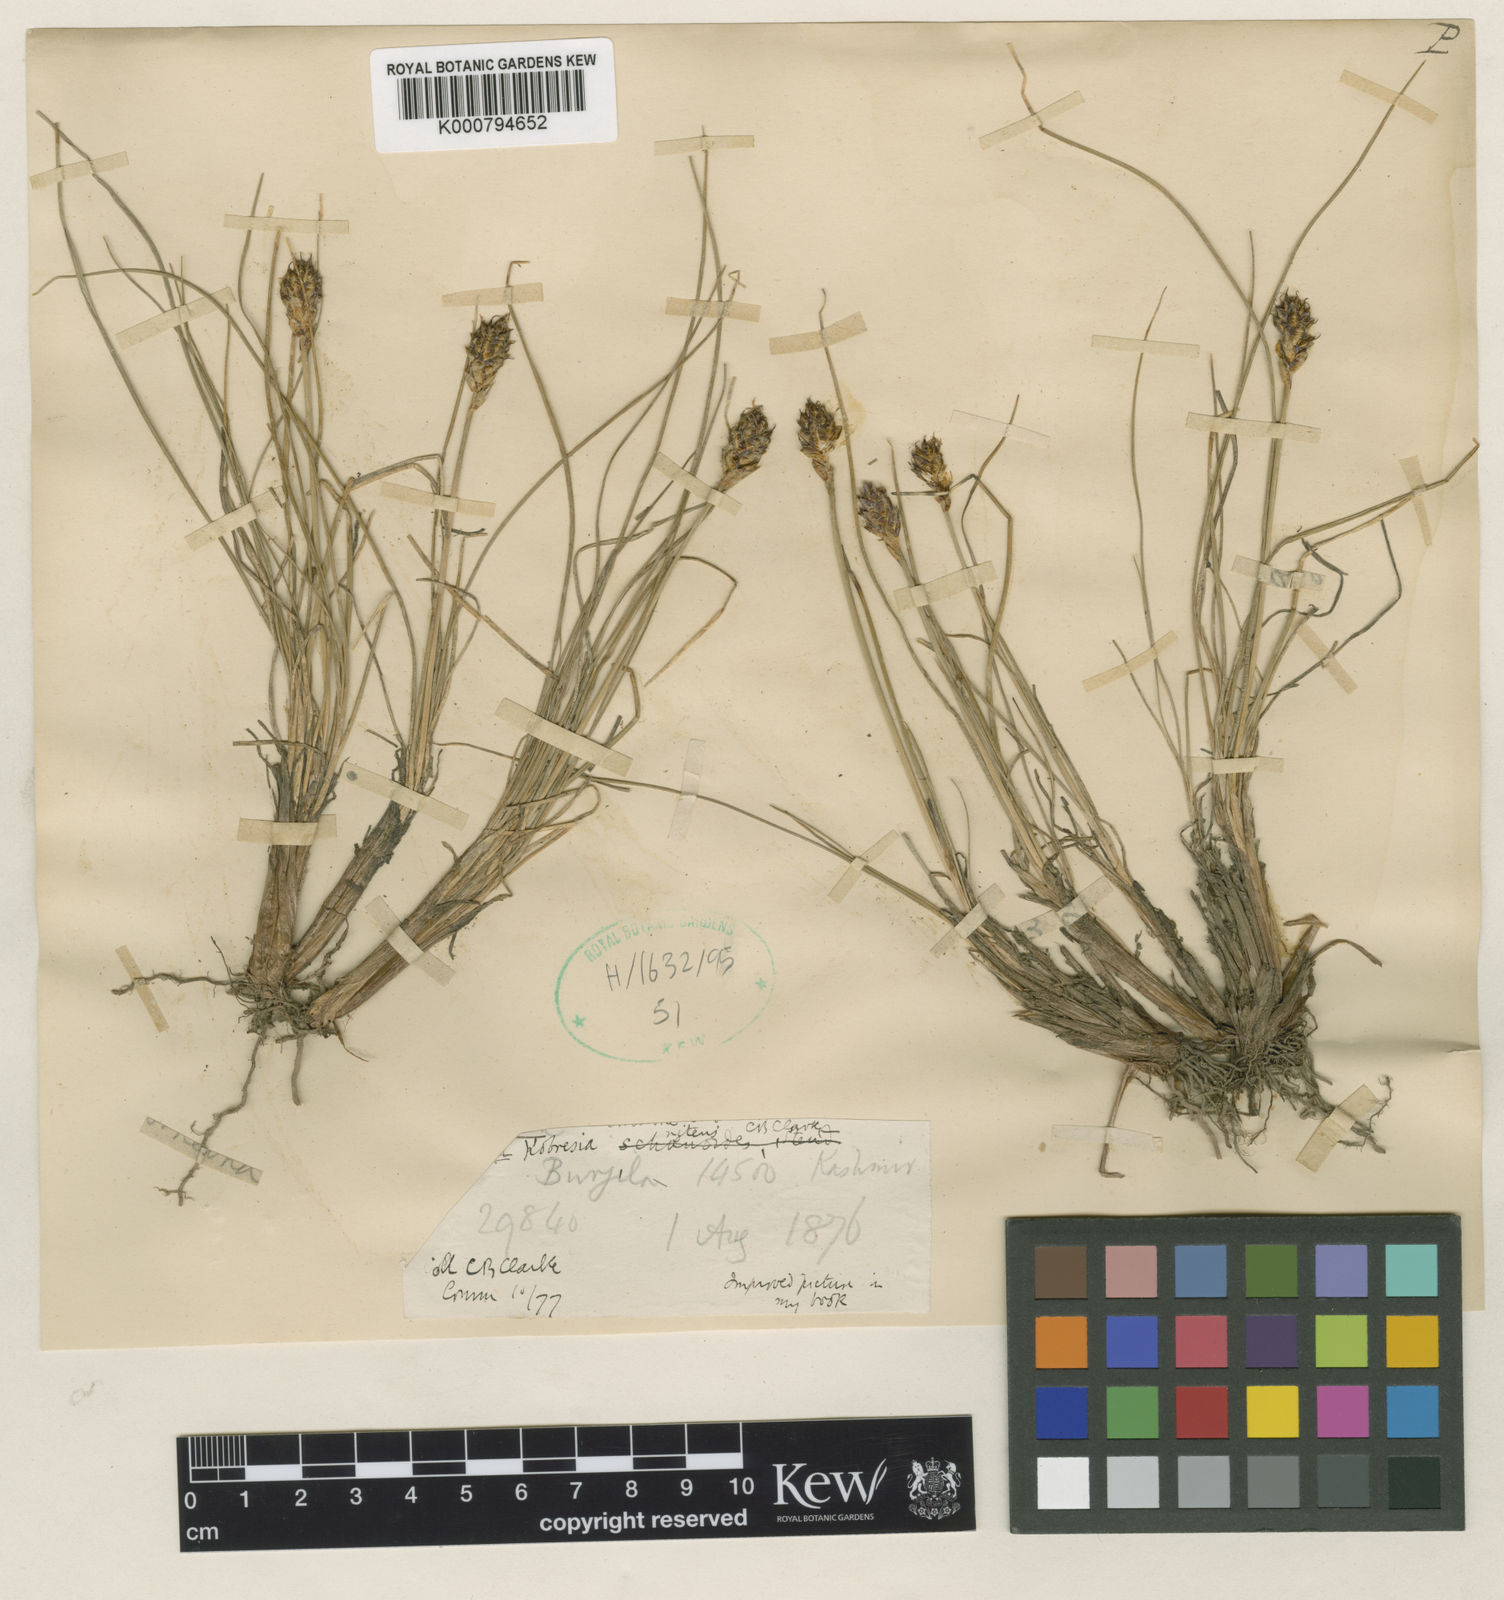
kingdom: Plantae
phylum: Tracheophyta
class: Liliopsida
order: Poales
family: Cyperaceae
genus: Carex
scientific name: Carex ovoidispica
